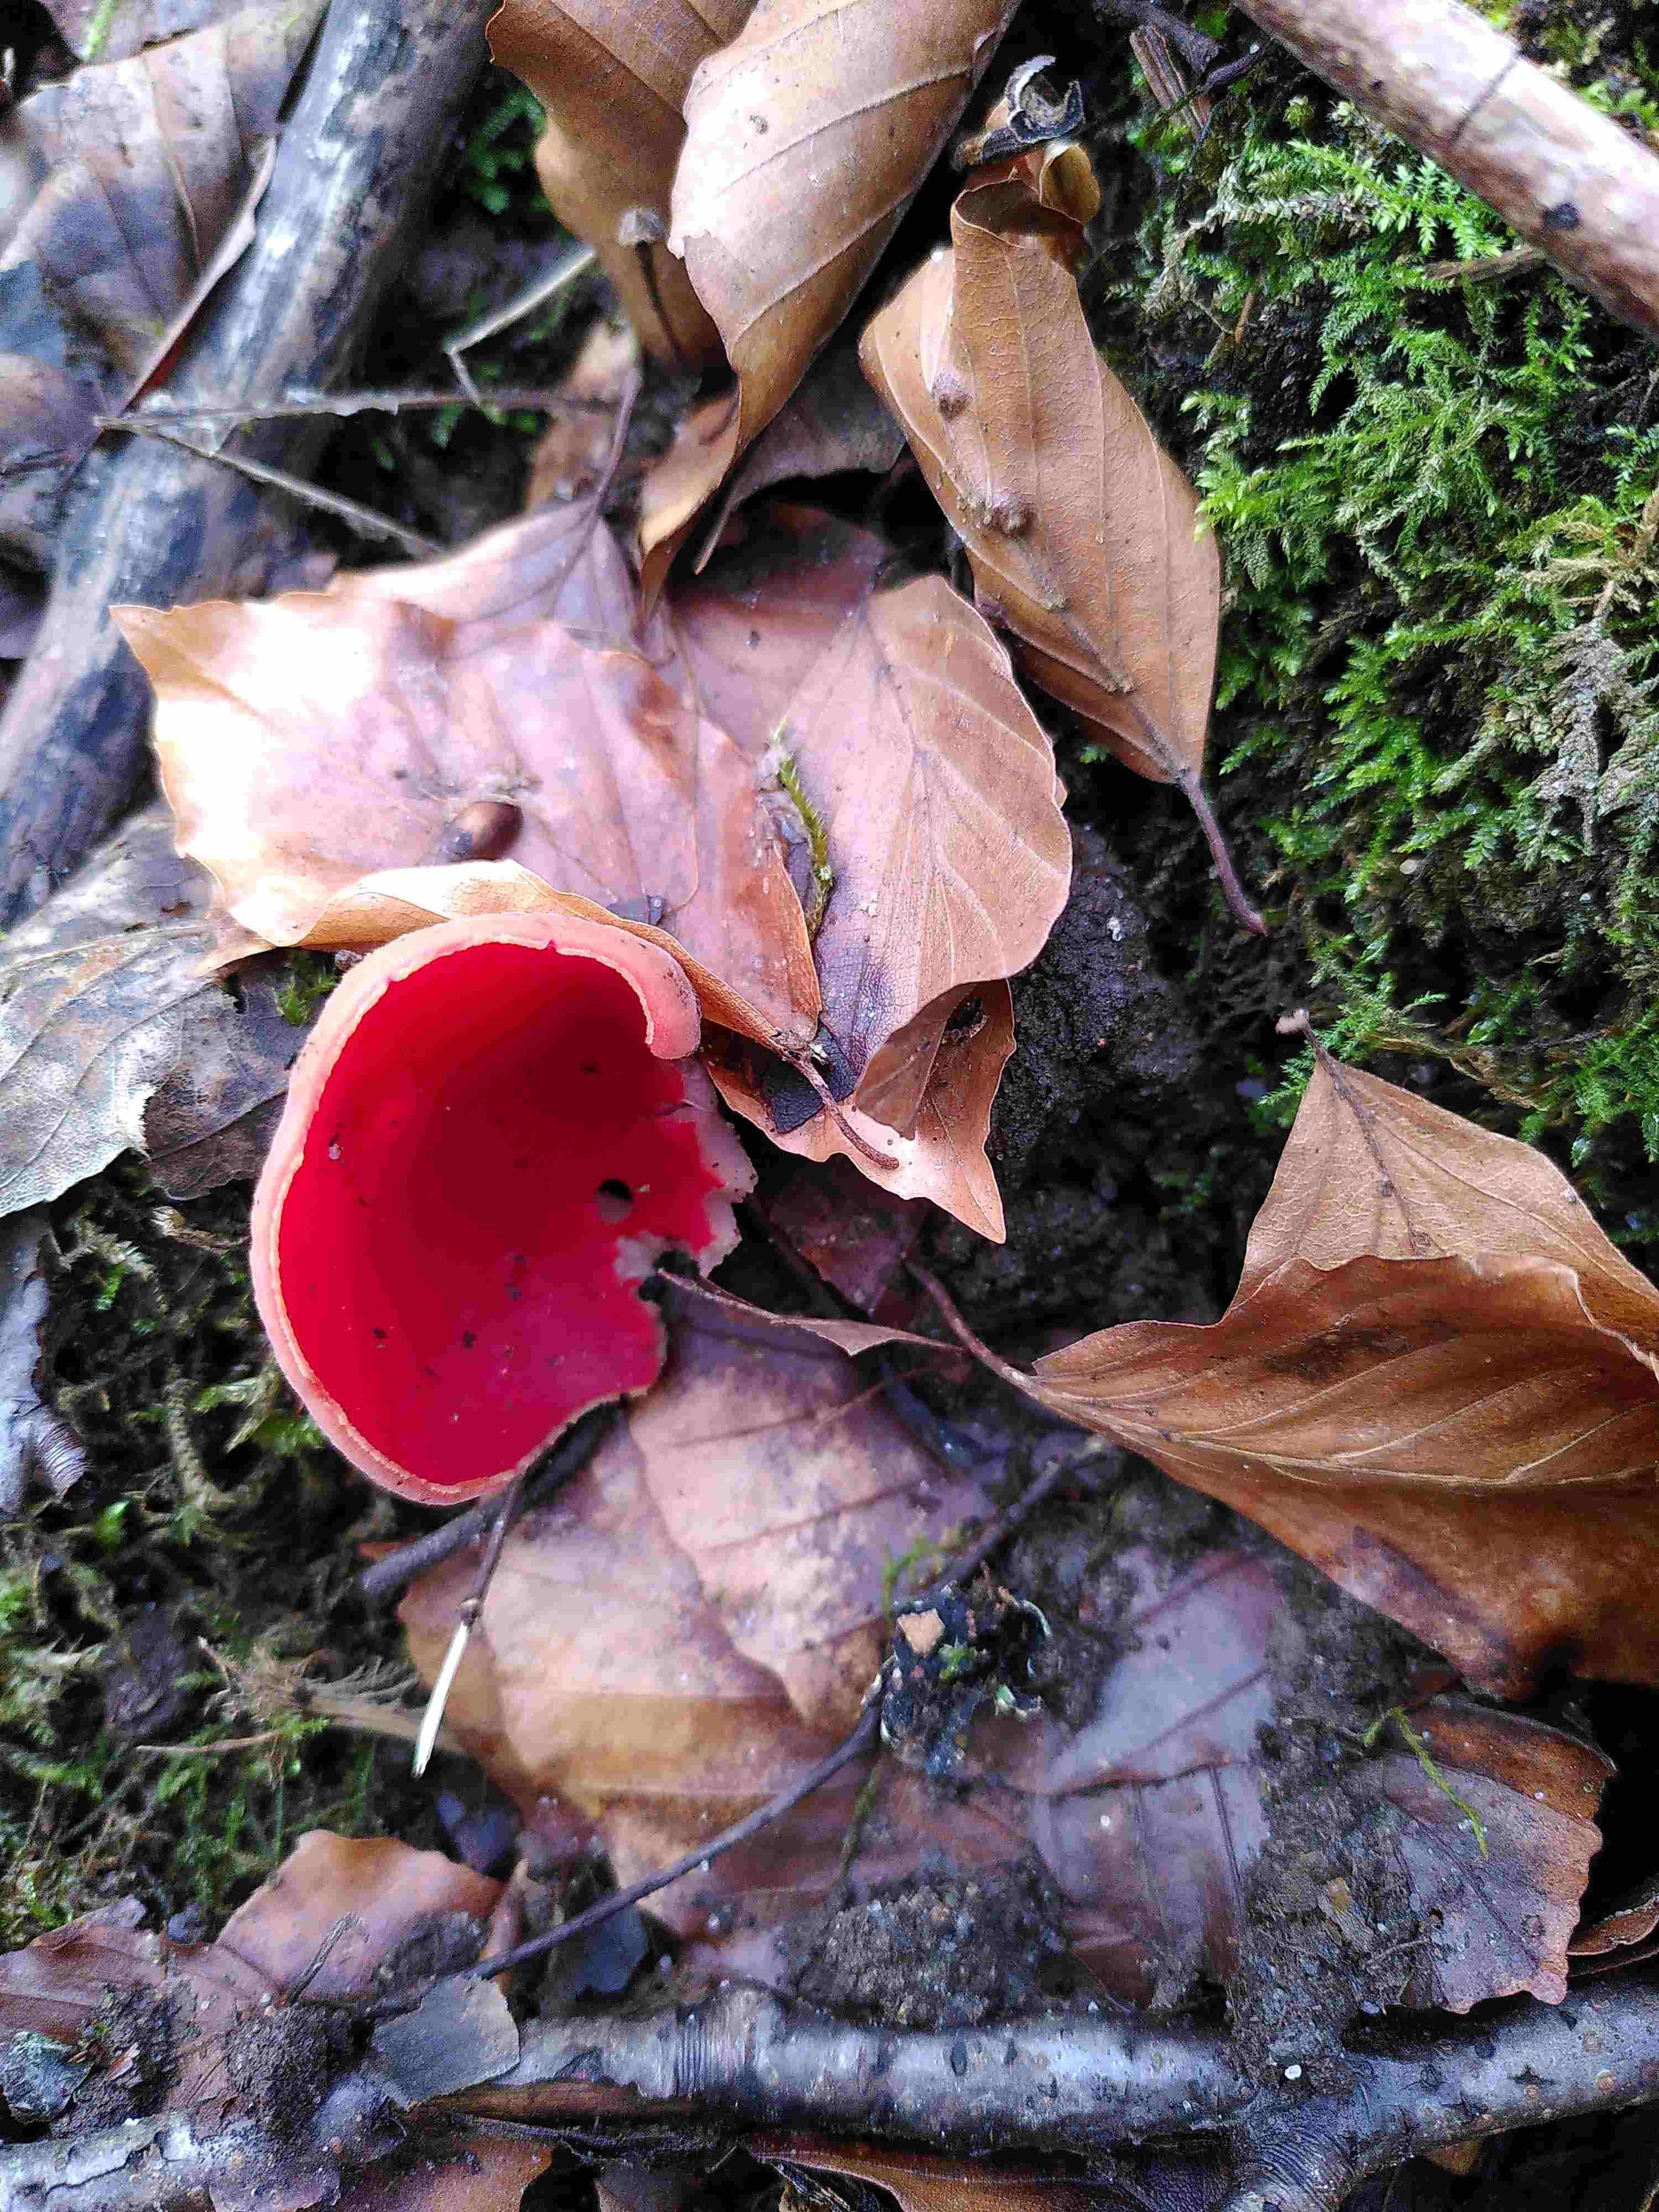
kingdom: Fungi
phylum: Ascomycota
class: Pezizomycetes
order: Pezizales
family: Sarcoscyphaceae
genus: Sarcoscypha
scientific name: Sarcoscypha austriaca
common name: krølhåret pragtbæger
